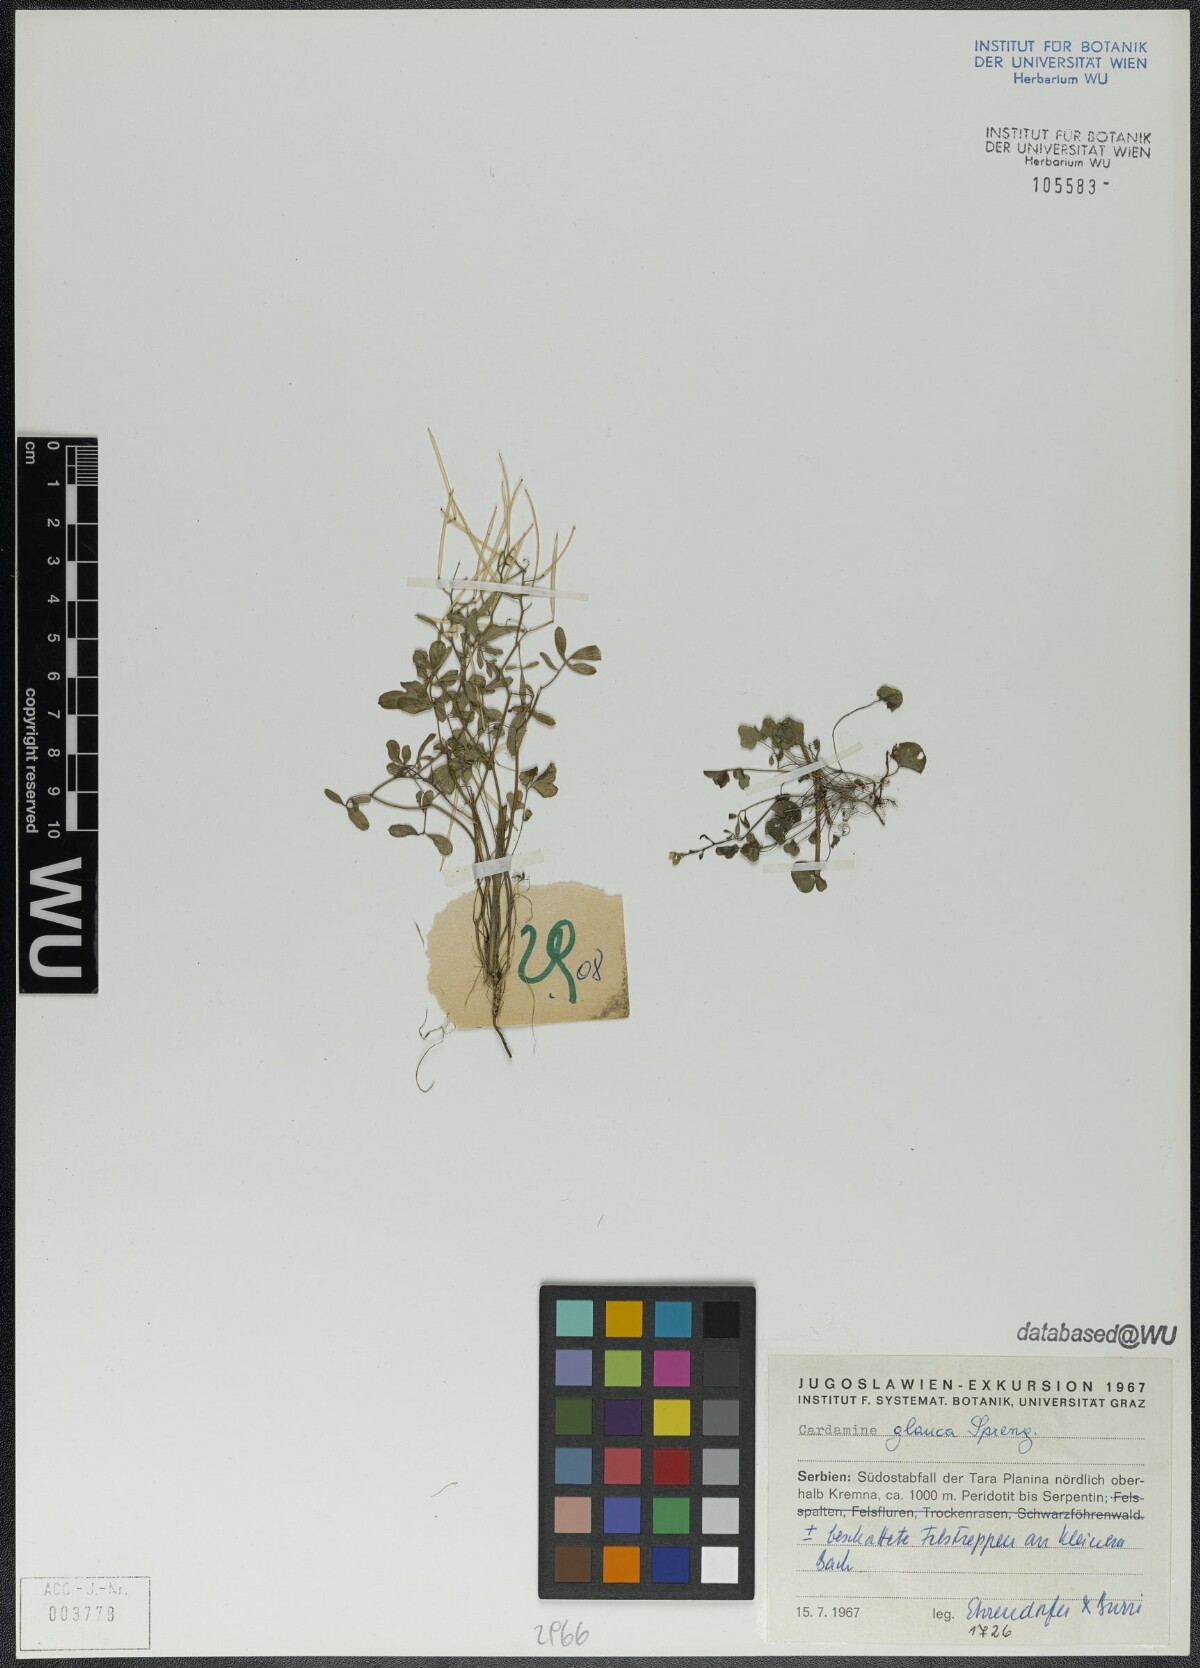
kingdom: Plantae
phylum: Tracheophyta
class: Magnoliopsida
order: Brassicales
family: Brassicaceae
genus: Cardamine
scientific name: Cardamine glauca
